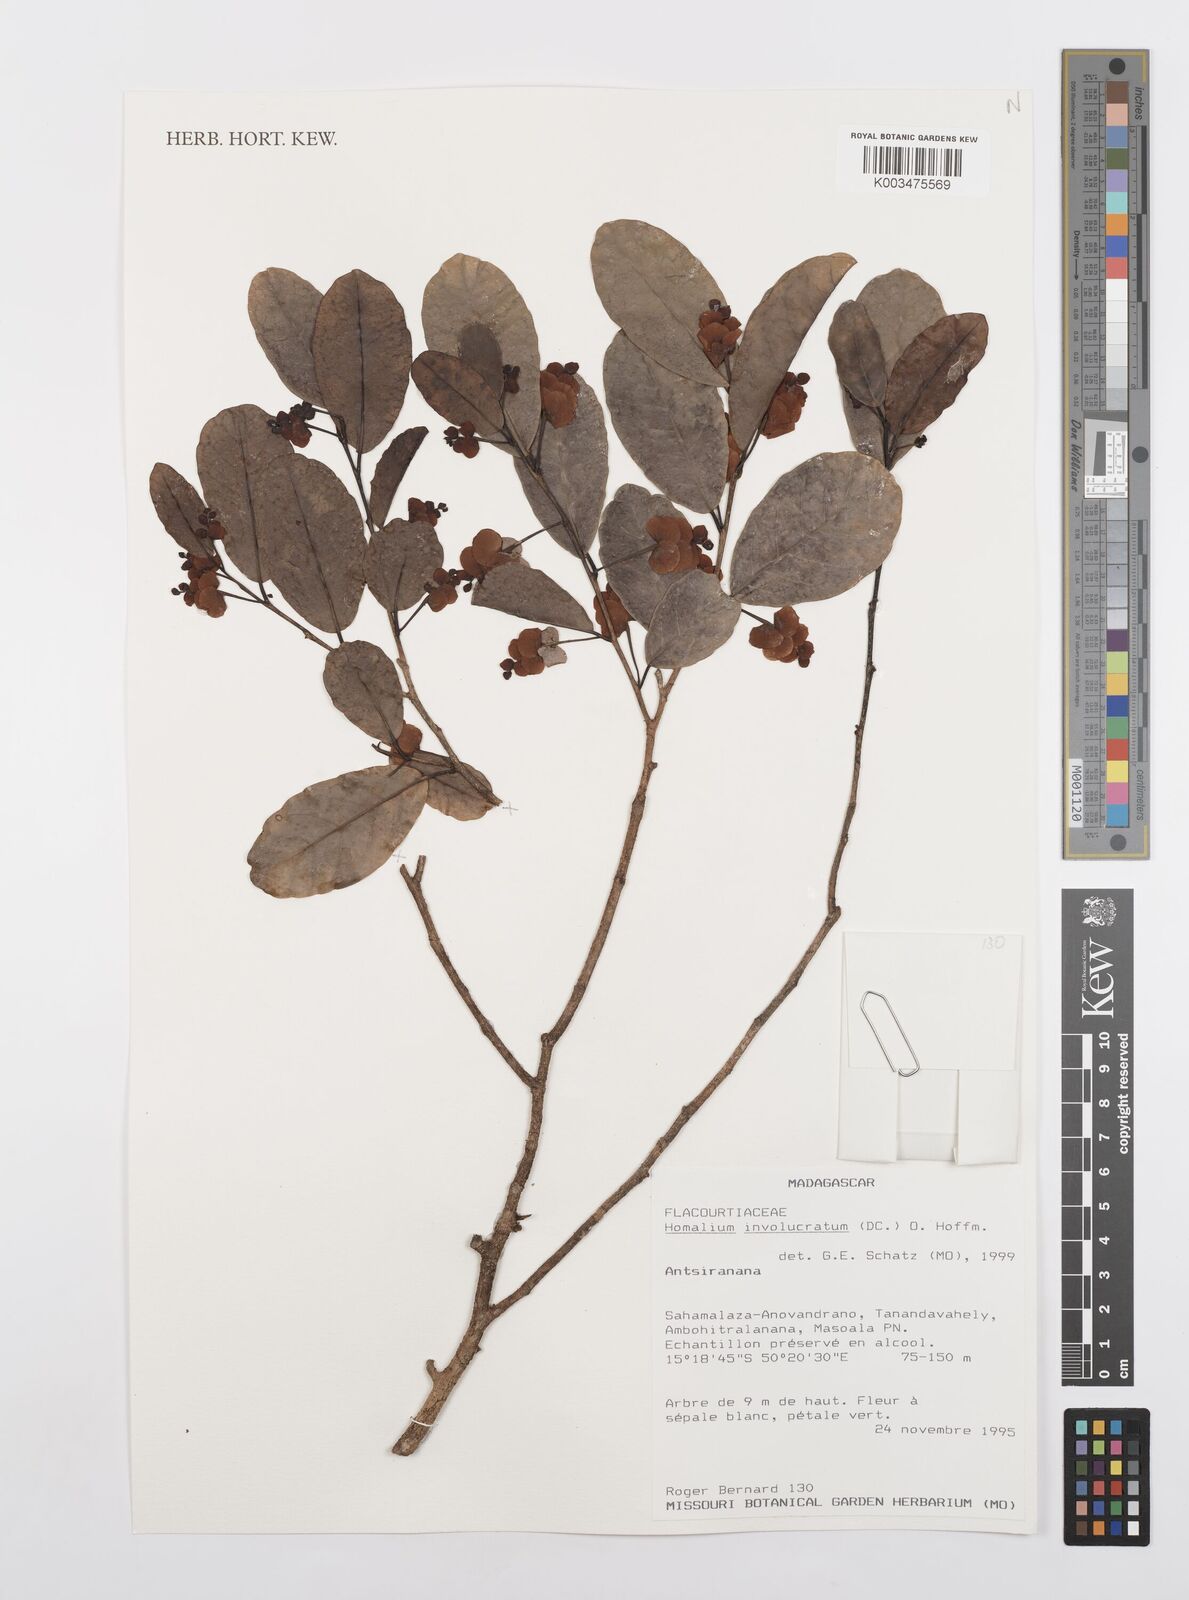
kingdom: Plantae
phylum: Tracheophyta
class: Magnoliopsida
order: Malpighiales
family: Salicaceae
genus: Homalium
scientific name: Homalium involucratum
